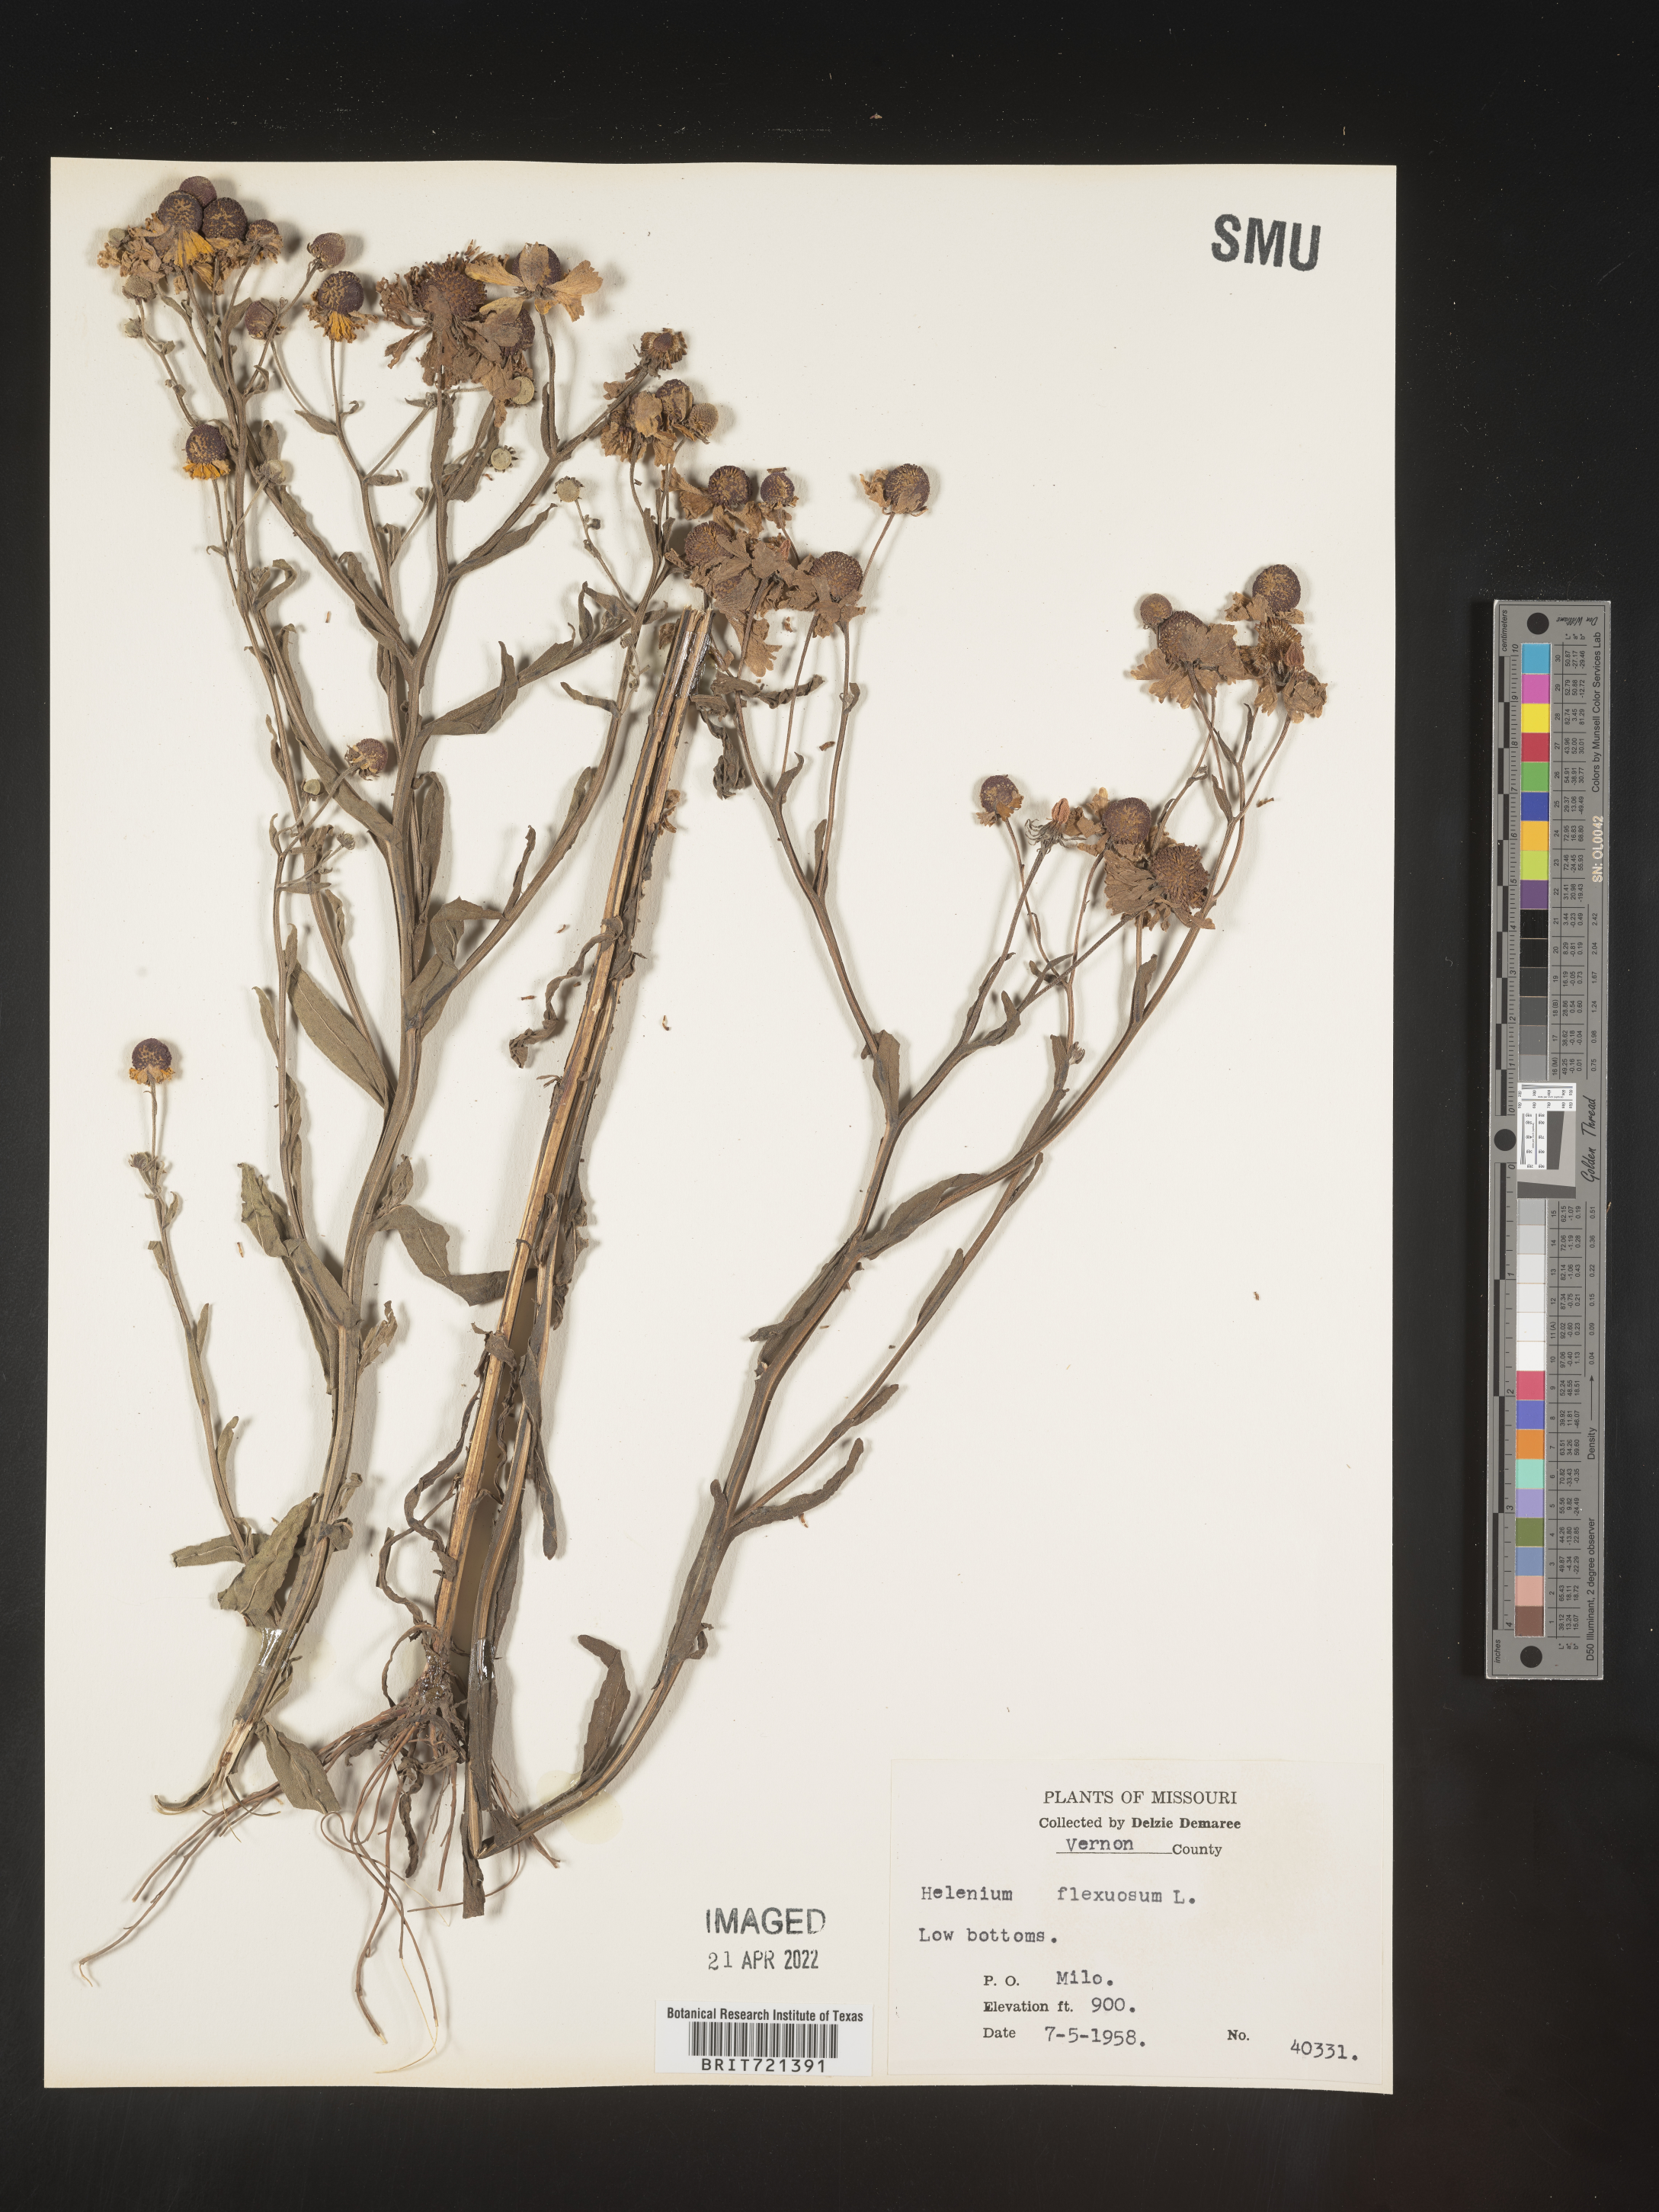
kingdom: Plantae
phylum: Tracheophyta
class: Magnoliopsida
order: Asterales
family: Asteraceae
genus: Helenium
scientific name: Helenium flexuosum
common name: Naked-flowered sneezeweed
